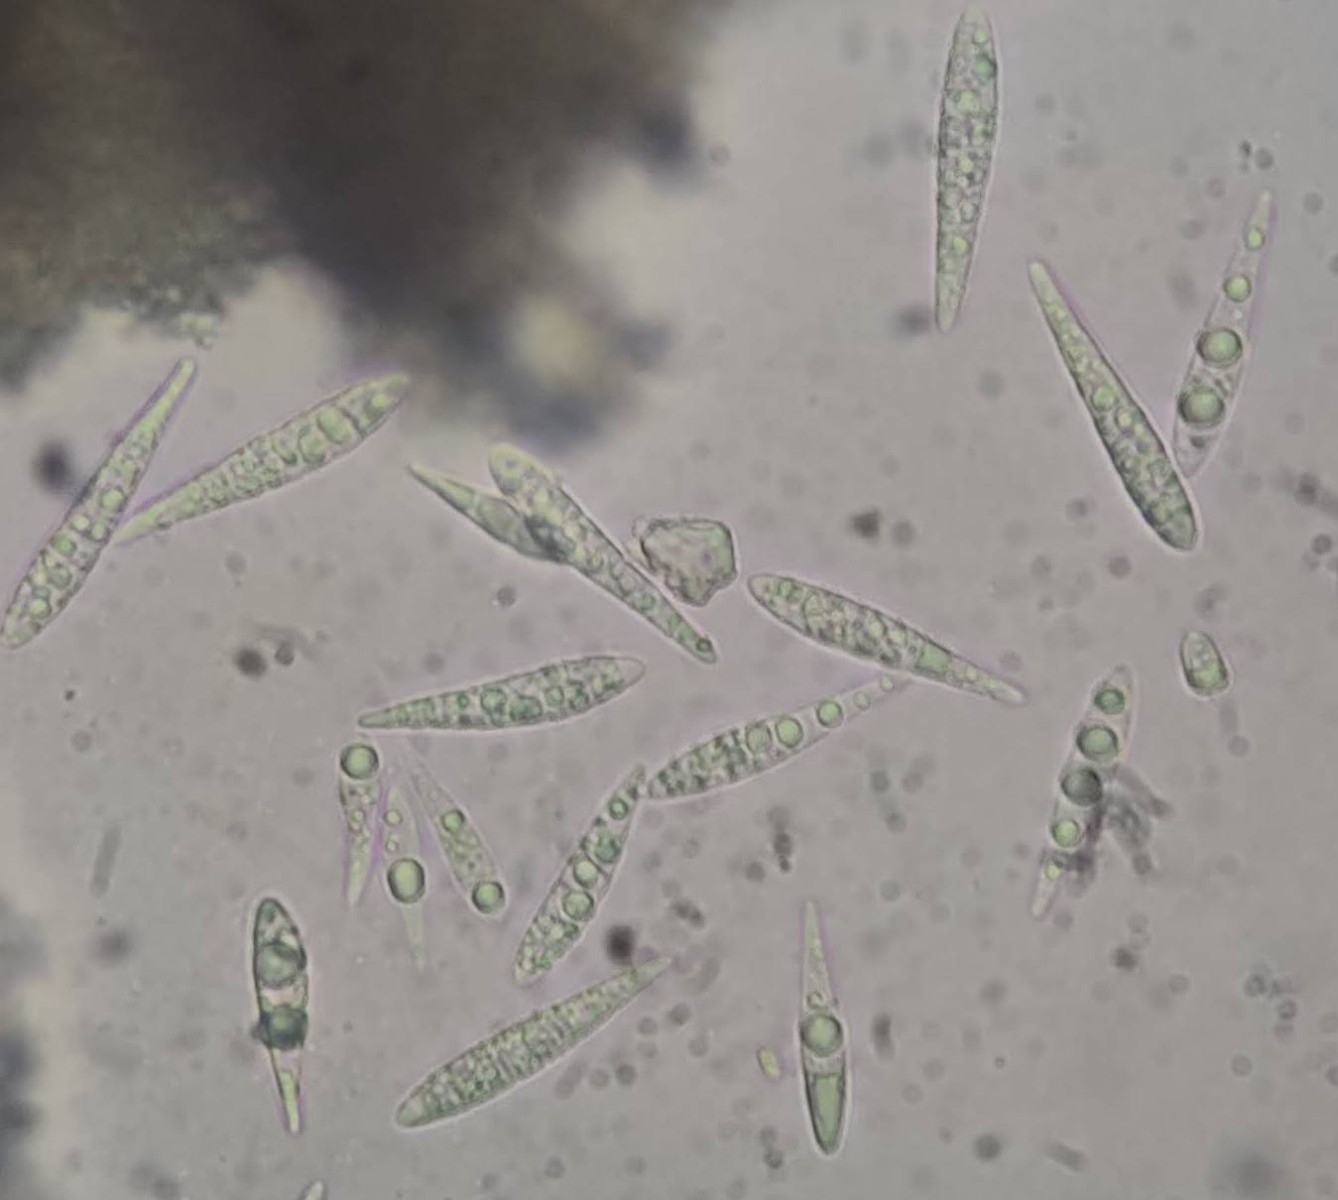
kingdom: Fungi
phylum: Ascomycota
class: Lecanoromycetes
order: Ostropales
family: Stictidaceae
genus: Karstenia
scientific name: Karstenia rhopaloides
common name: grårosa barkhul
